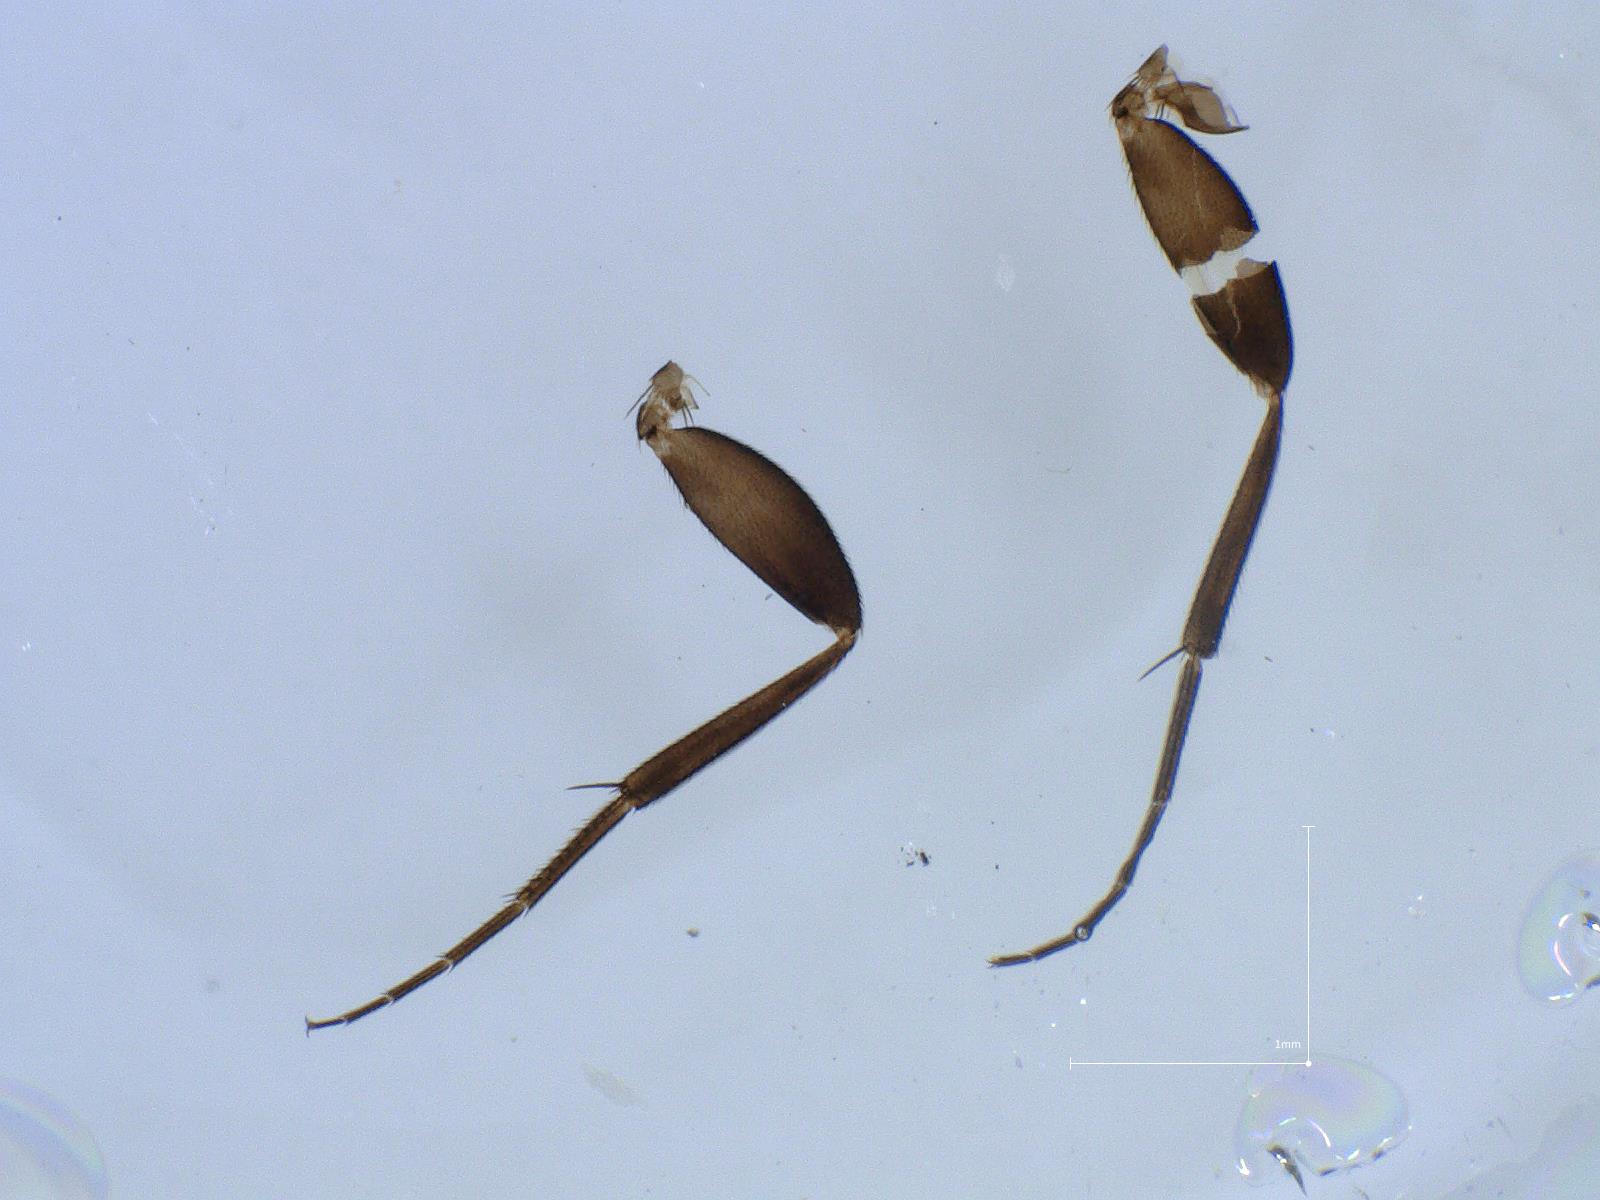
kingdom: Animalia
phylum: Arthropoda
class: Insecta
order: Diptera
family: Phoridae
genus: Megaselia
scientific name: Megaselia longicostalis
